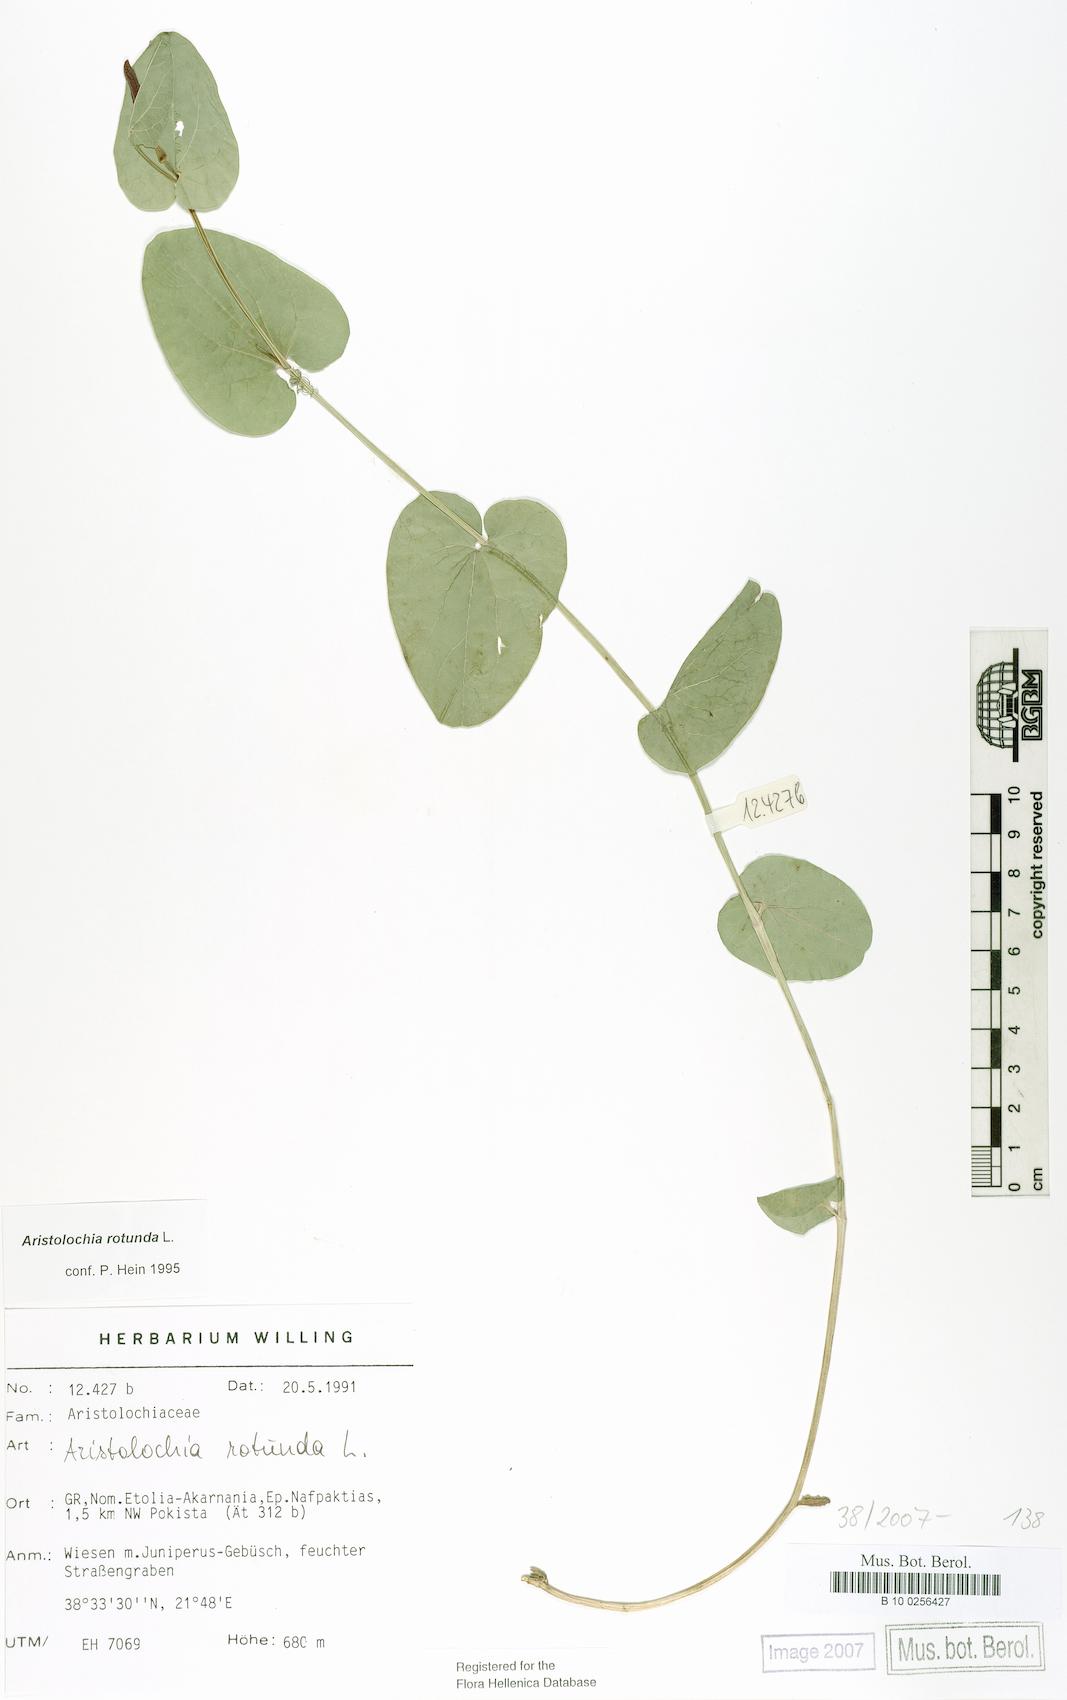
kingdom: Plantae
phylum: Tracheophyta
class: Magnoliopsida
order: Piperales
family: Aristolochiaceae
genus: Aristolochia
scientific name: Aristolochia rotunda
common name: Smearwort
